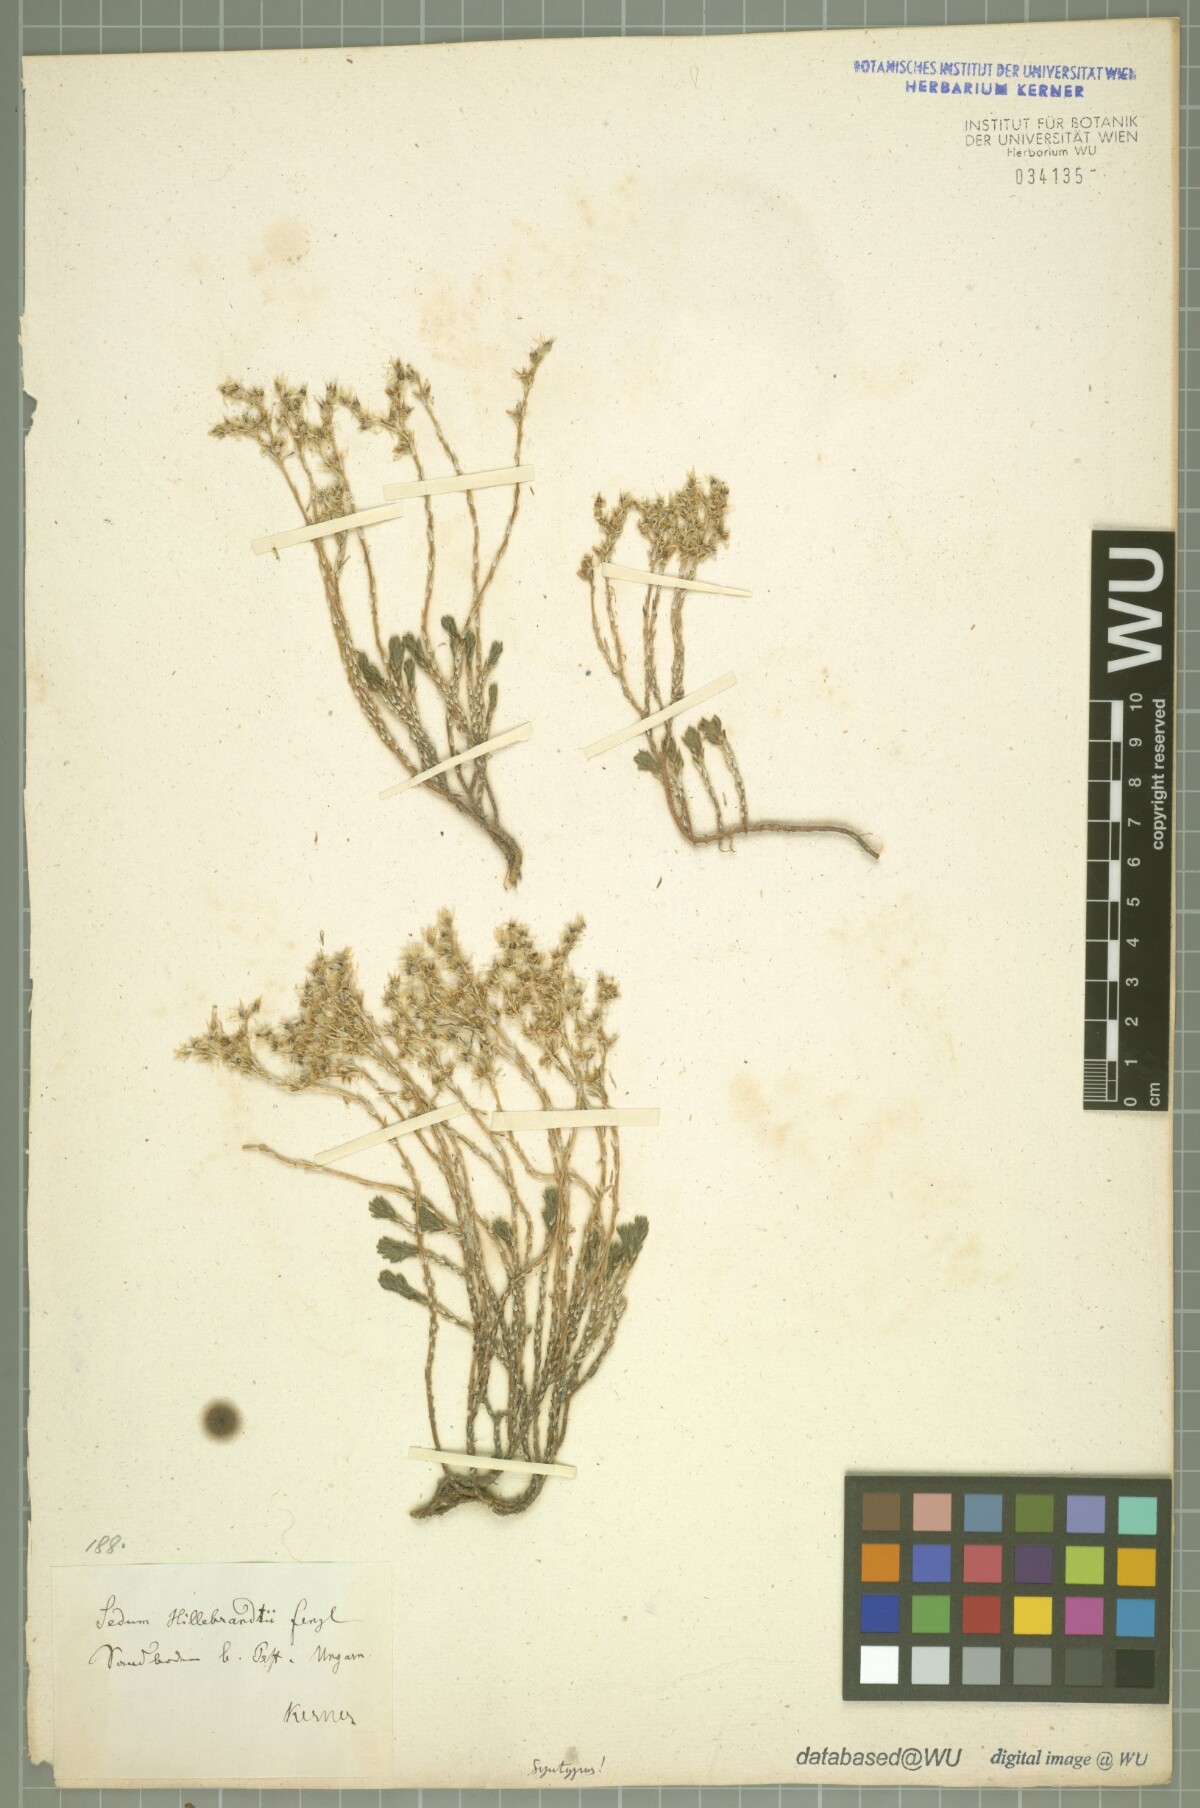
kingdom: Plantae
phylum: Tracheophyta
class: Magnoliopsida
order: Saxifragales
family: Crassulaceae
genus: Sedum
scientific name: Sedum urvillei
